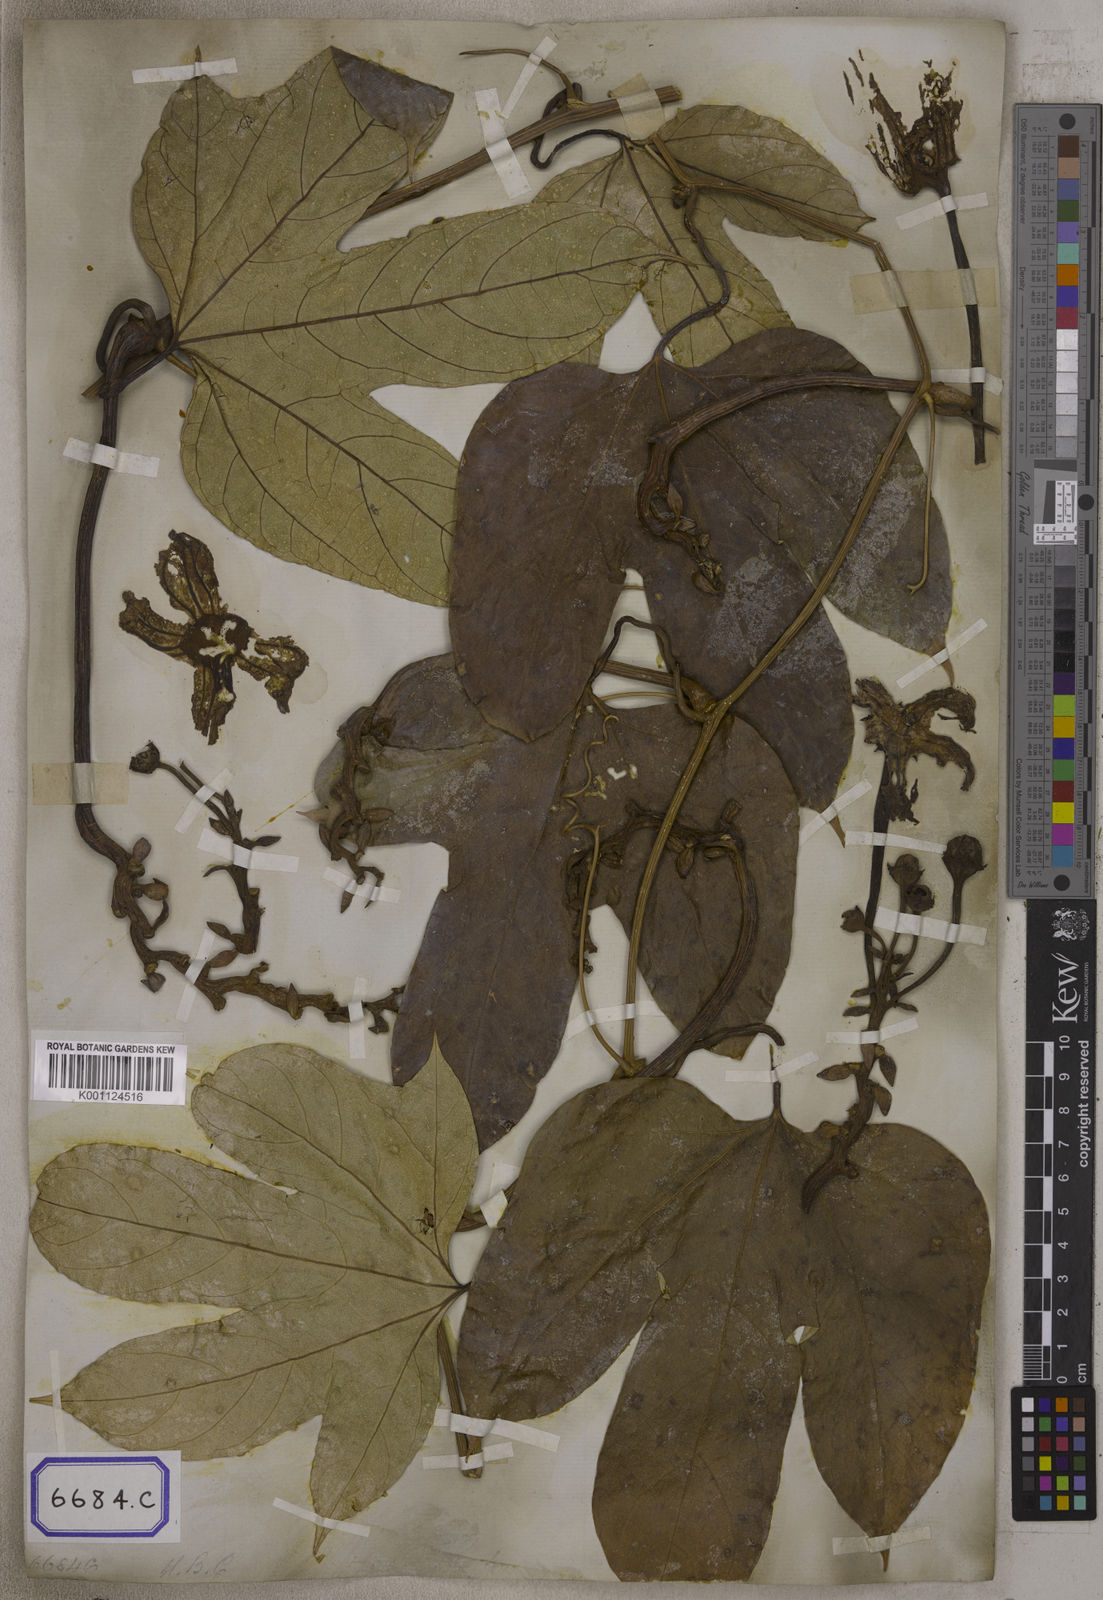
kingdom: Plantae
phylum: Tracheophyta
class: Magnoliopsida
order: Cucurbitales
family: Cucurbitaceae
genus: Hodgsonia
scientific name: Hodgsonia heteroclita
